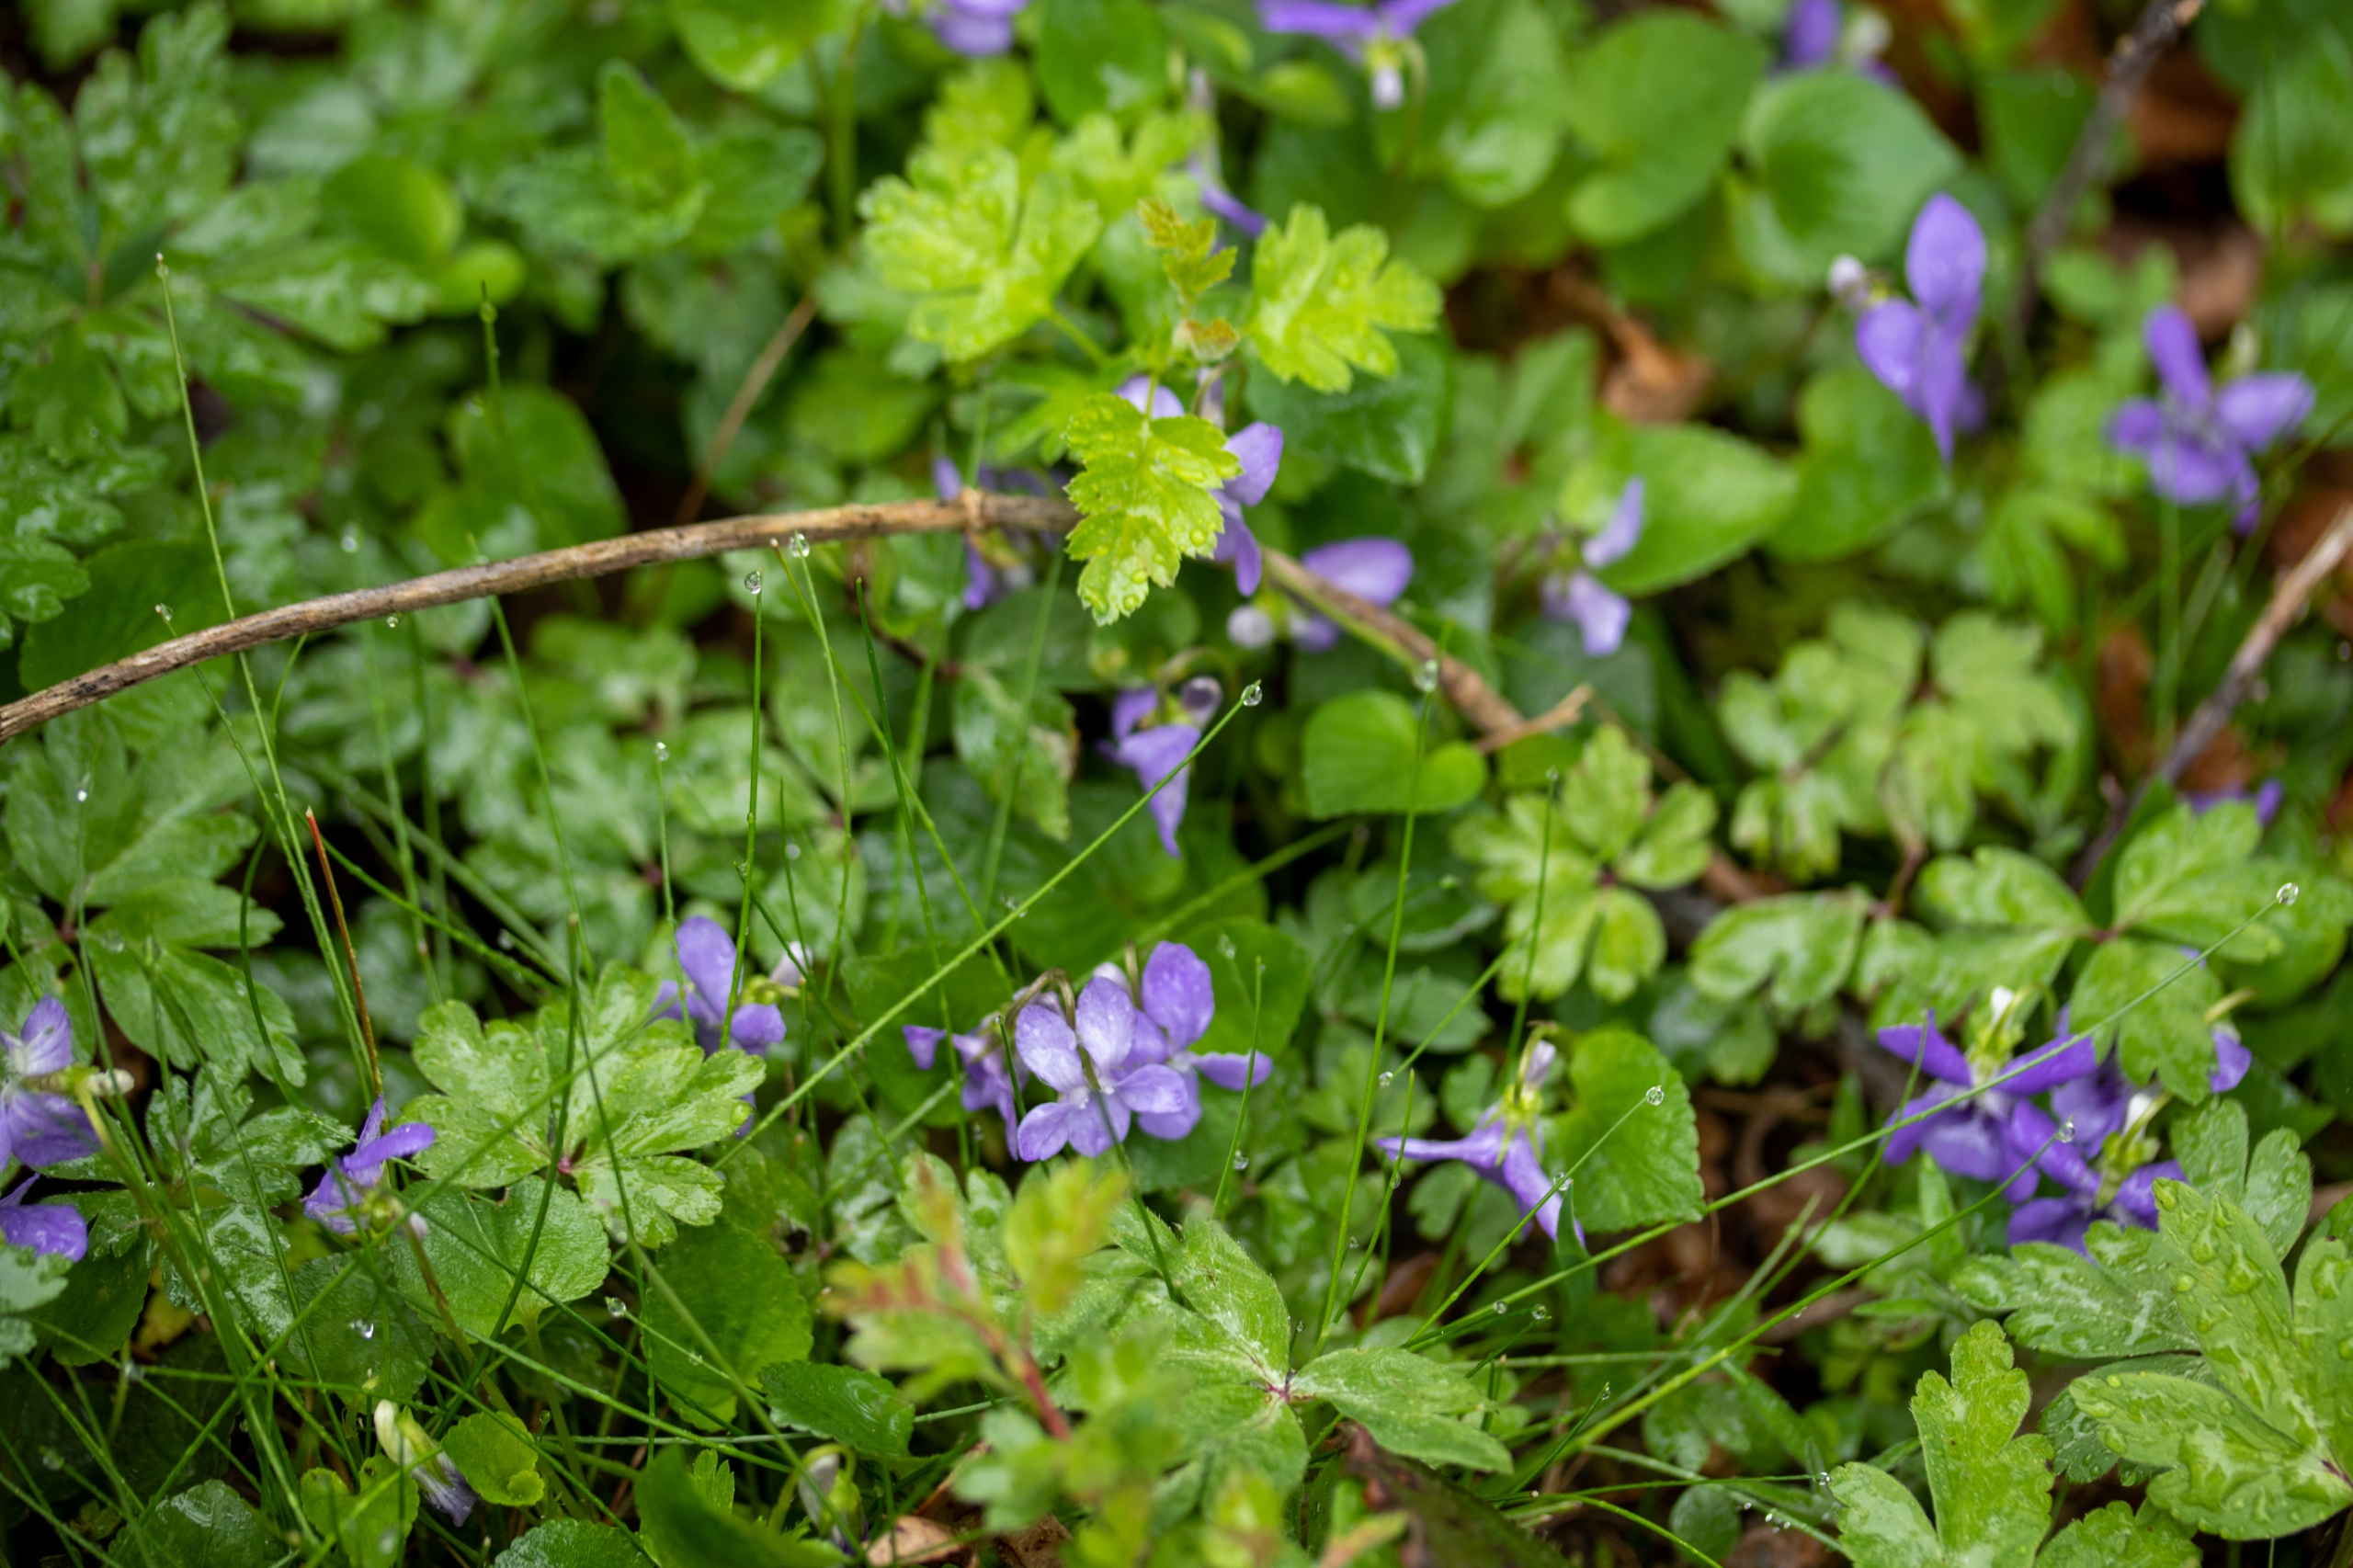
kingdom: Plantae
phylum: Tracheophyta
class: Magnoliopsida
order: Malpighiales
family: Violaceae
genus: Viola
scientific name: Viola canina
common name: Hunde-viol
